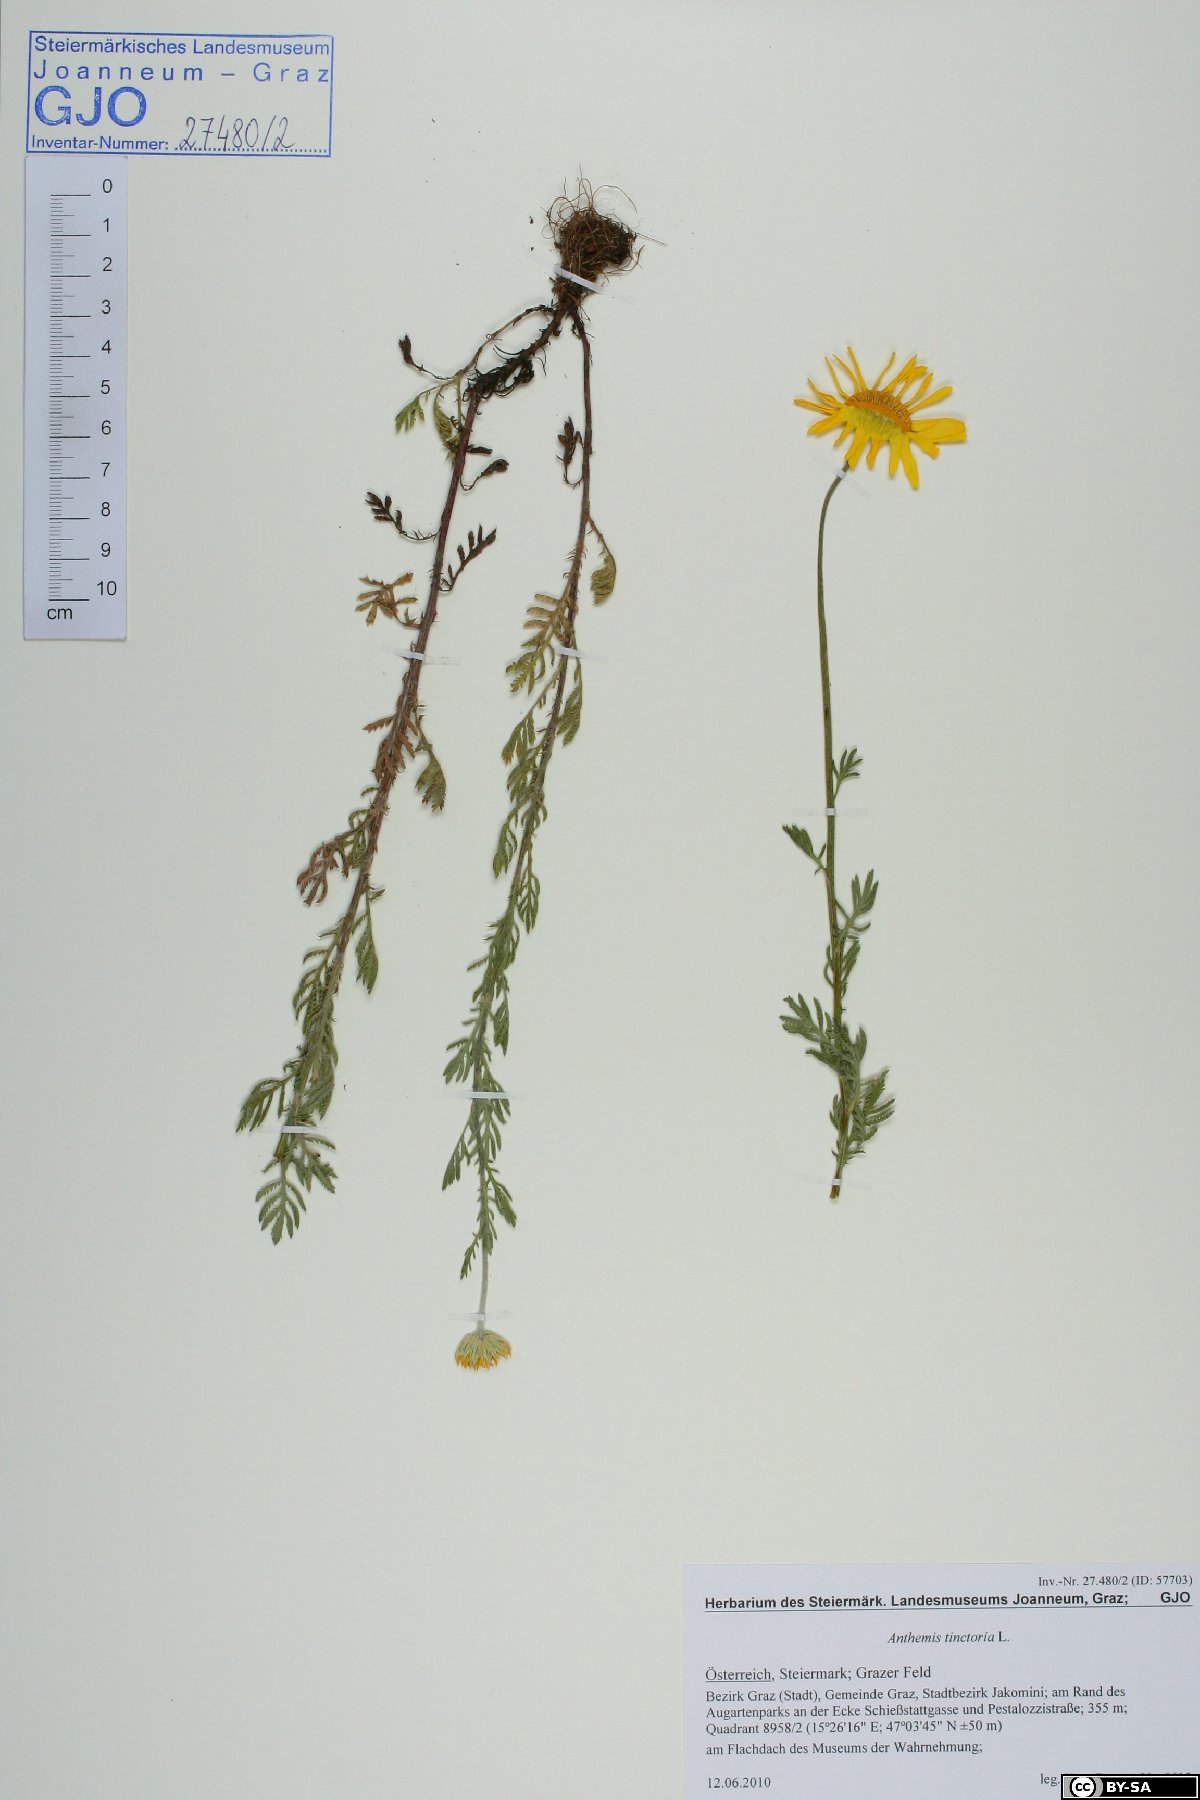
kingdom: Plantae
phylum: Tracheophyta
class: Magnoliopsida
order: Asterales
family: Asteraceae
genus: Cota
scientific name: Cota tinctoria
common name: Golden chamomile
